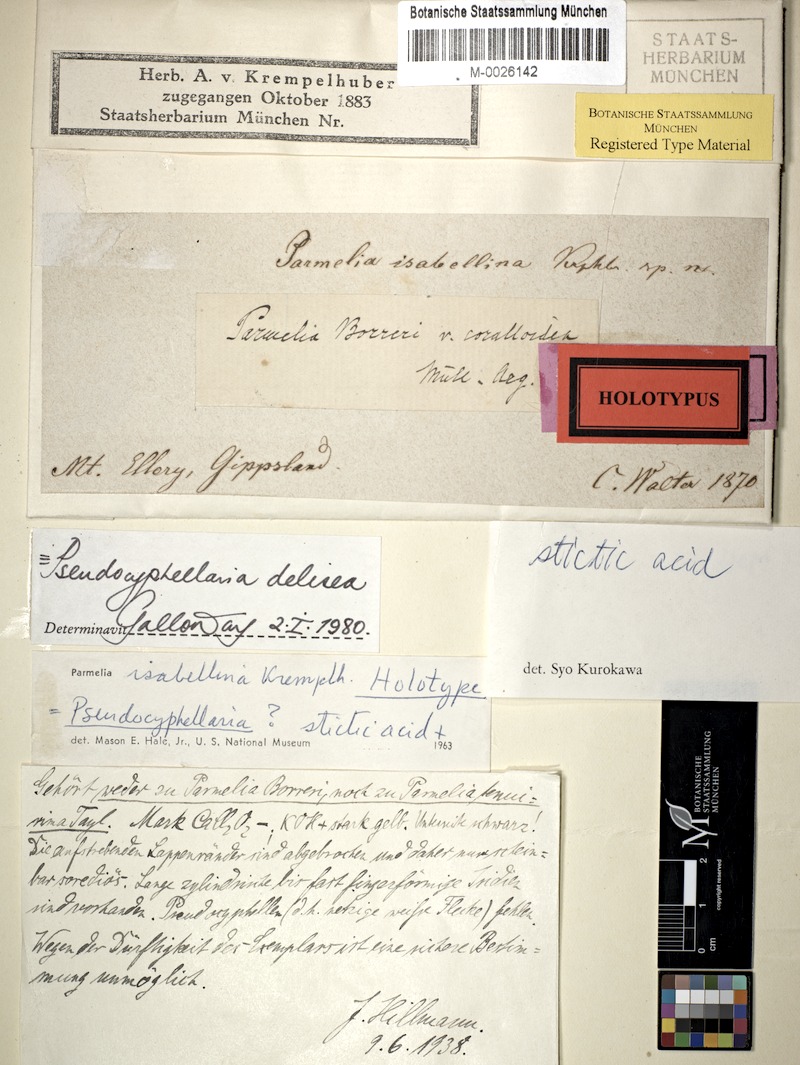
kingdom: Fungi
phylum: Ascomycota
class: Lecanoromycetes
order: Peltigerales
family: Lobariaceae
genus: Pseudocyphellaria
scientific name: Pseudocyphellaria glabra
